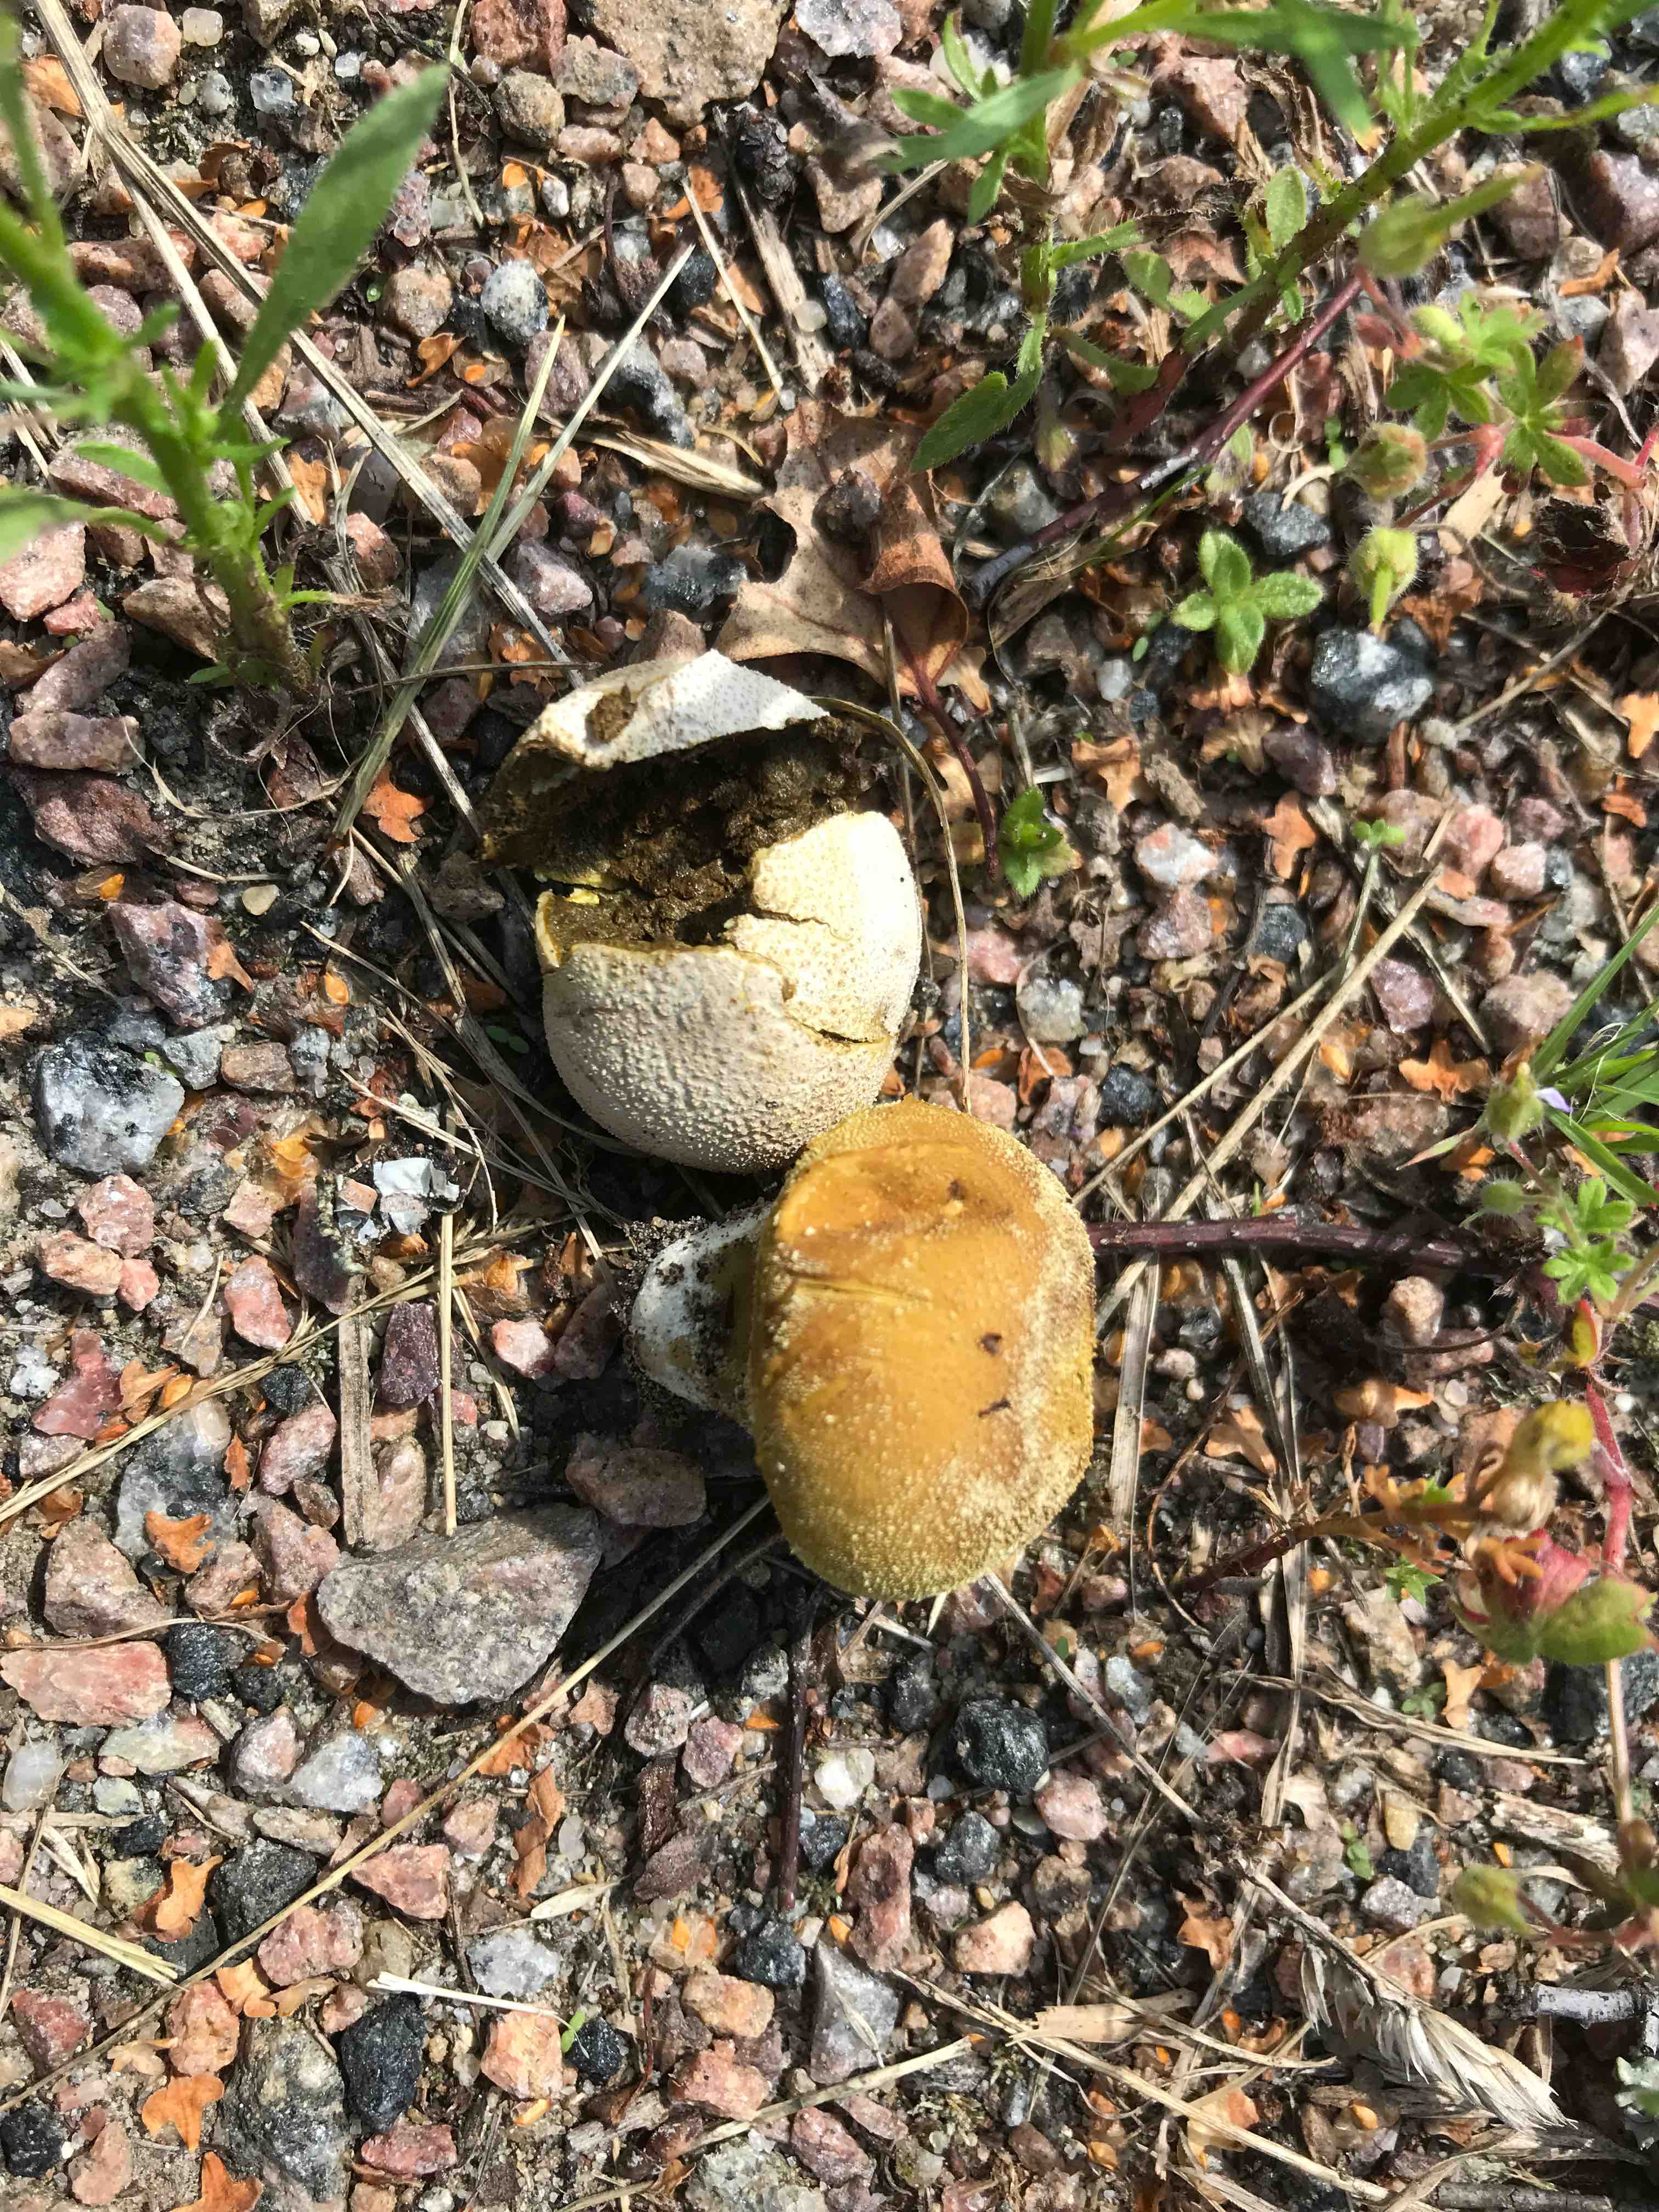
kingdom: Fungi
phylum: Basidiomycota
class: Agaricomycetes
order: Agaricales
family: Lycoperdaceae
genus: Bovistella
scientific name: Bovistella utriformis
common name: skællet støvbold
